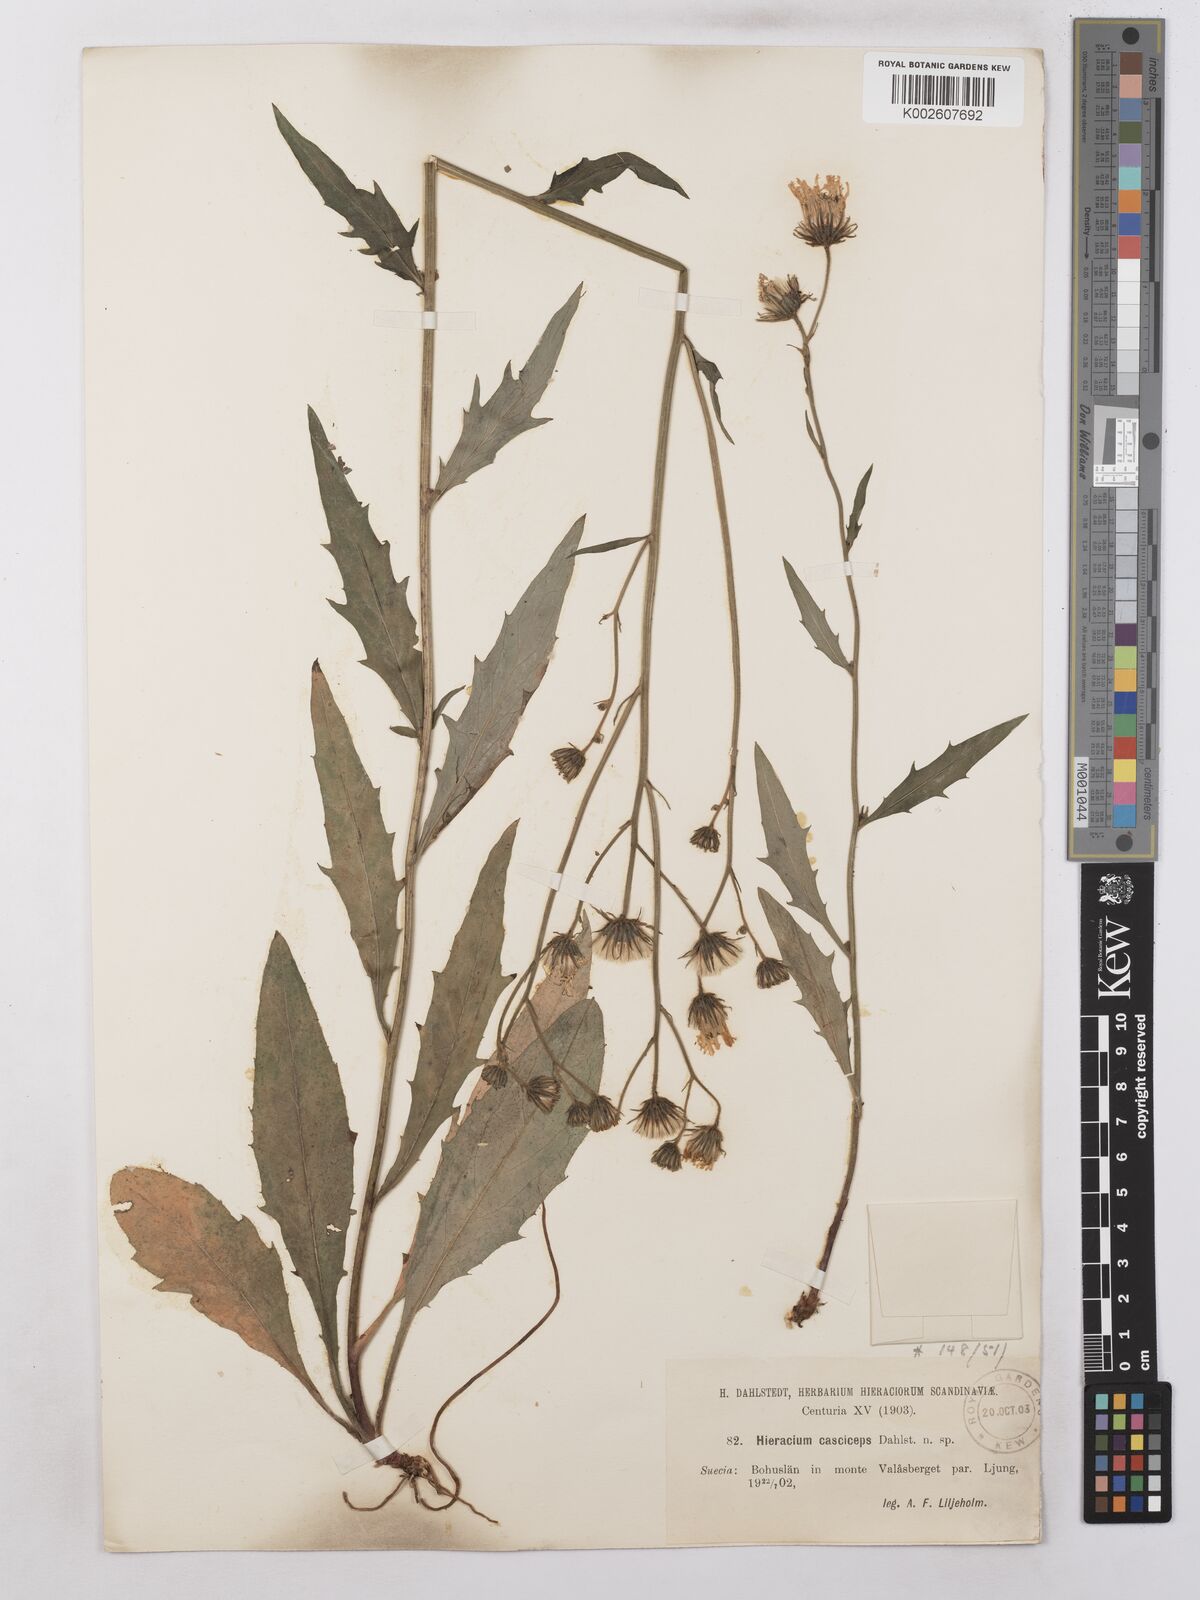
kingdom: Plantae
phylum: Tracheophyta
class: Magnoliopsida
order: Asterales
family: Asteraceae
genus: Hieracium
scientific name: Hieracium subramosum
